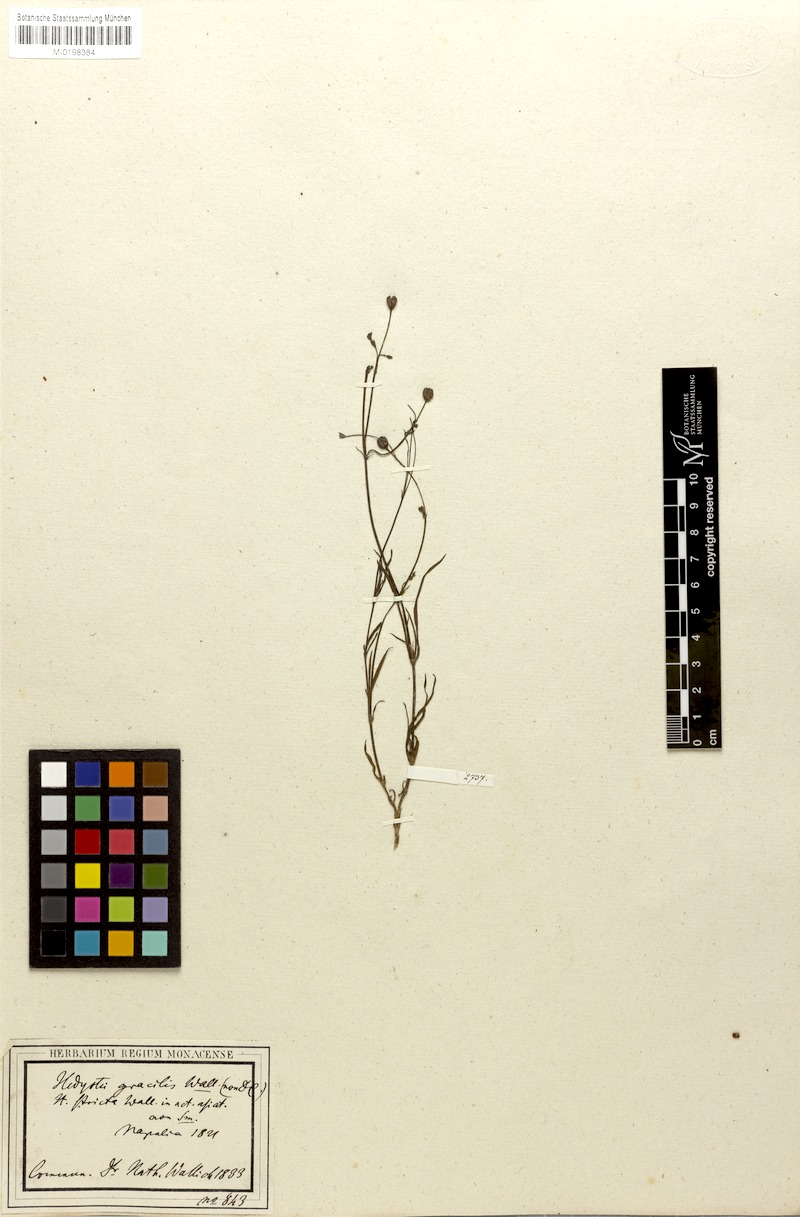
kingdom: Plantae
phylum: Tracheophyta
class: Magnoliopsida
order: Gentianales
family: Rubiaceae
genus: Kohautia
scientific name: Kohautia gracilis
